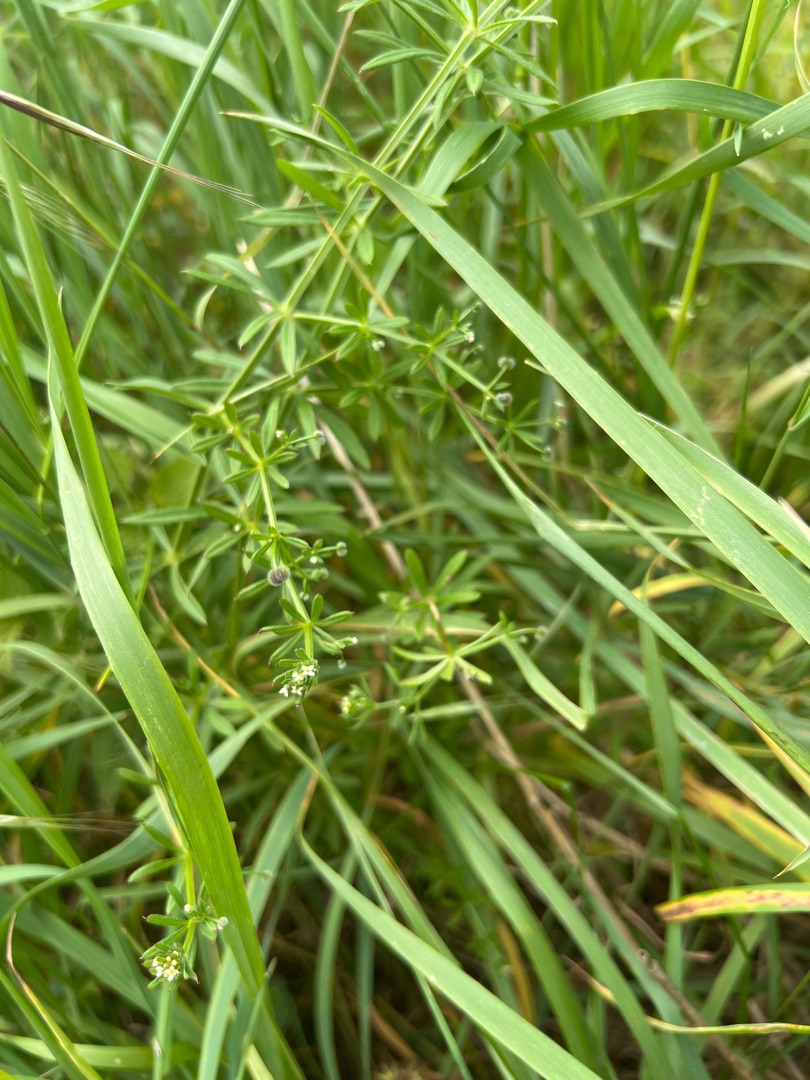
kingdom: Plantae
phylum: Tracheophyta
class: Magnoliopsida
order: Gentianales
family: Rubiaceae
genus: Galium
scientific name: Galium aparine
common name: Burre-snerre
